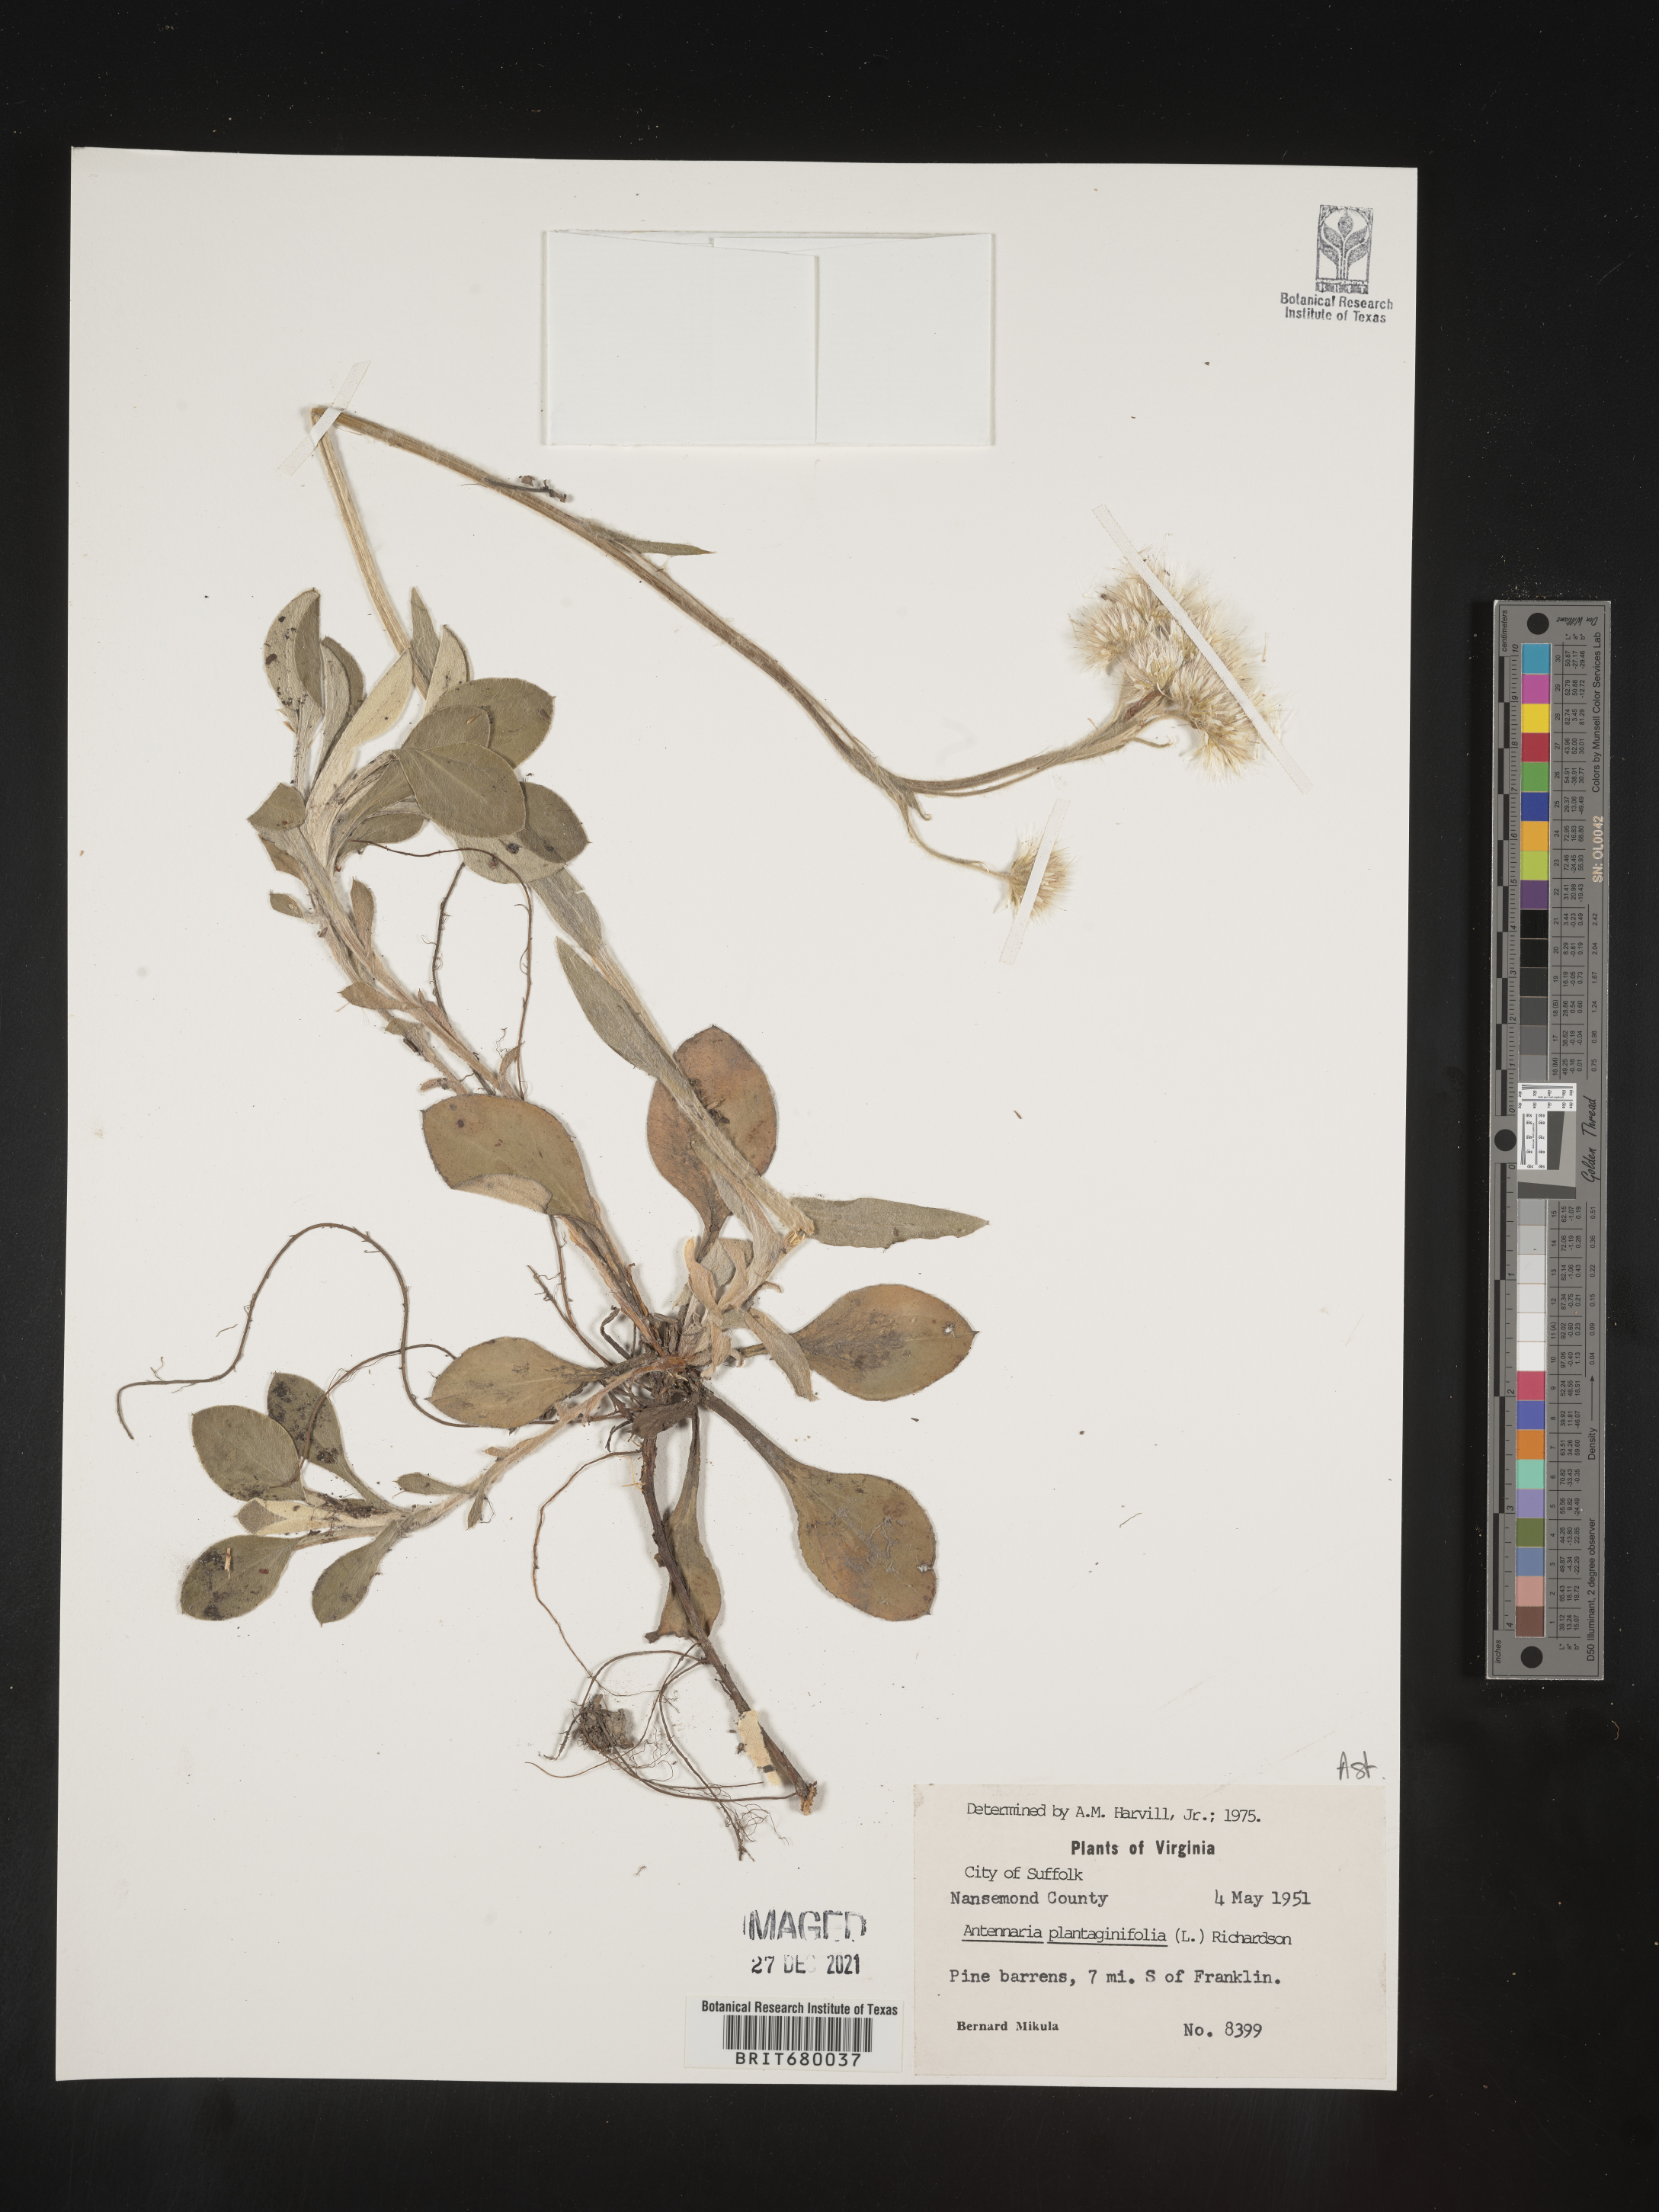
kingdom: Plantae
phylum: Tracheophyta
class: Magnoliopsida
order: Asterales
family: Asteraceae
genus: Antennaria
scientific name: Antennaria plantaginifolia
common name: Plantain-leaved pussytoes
